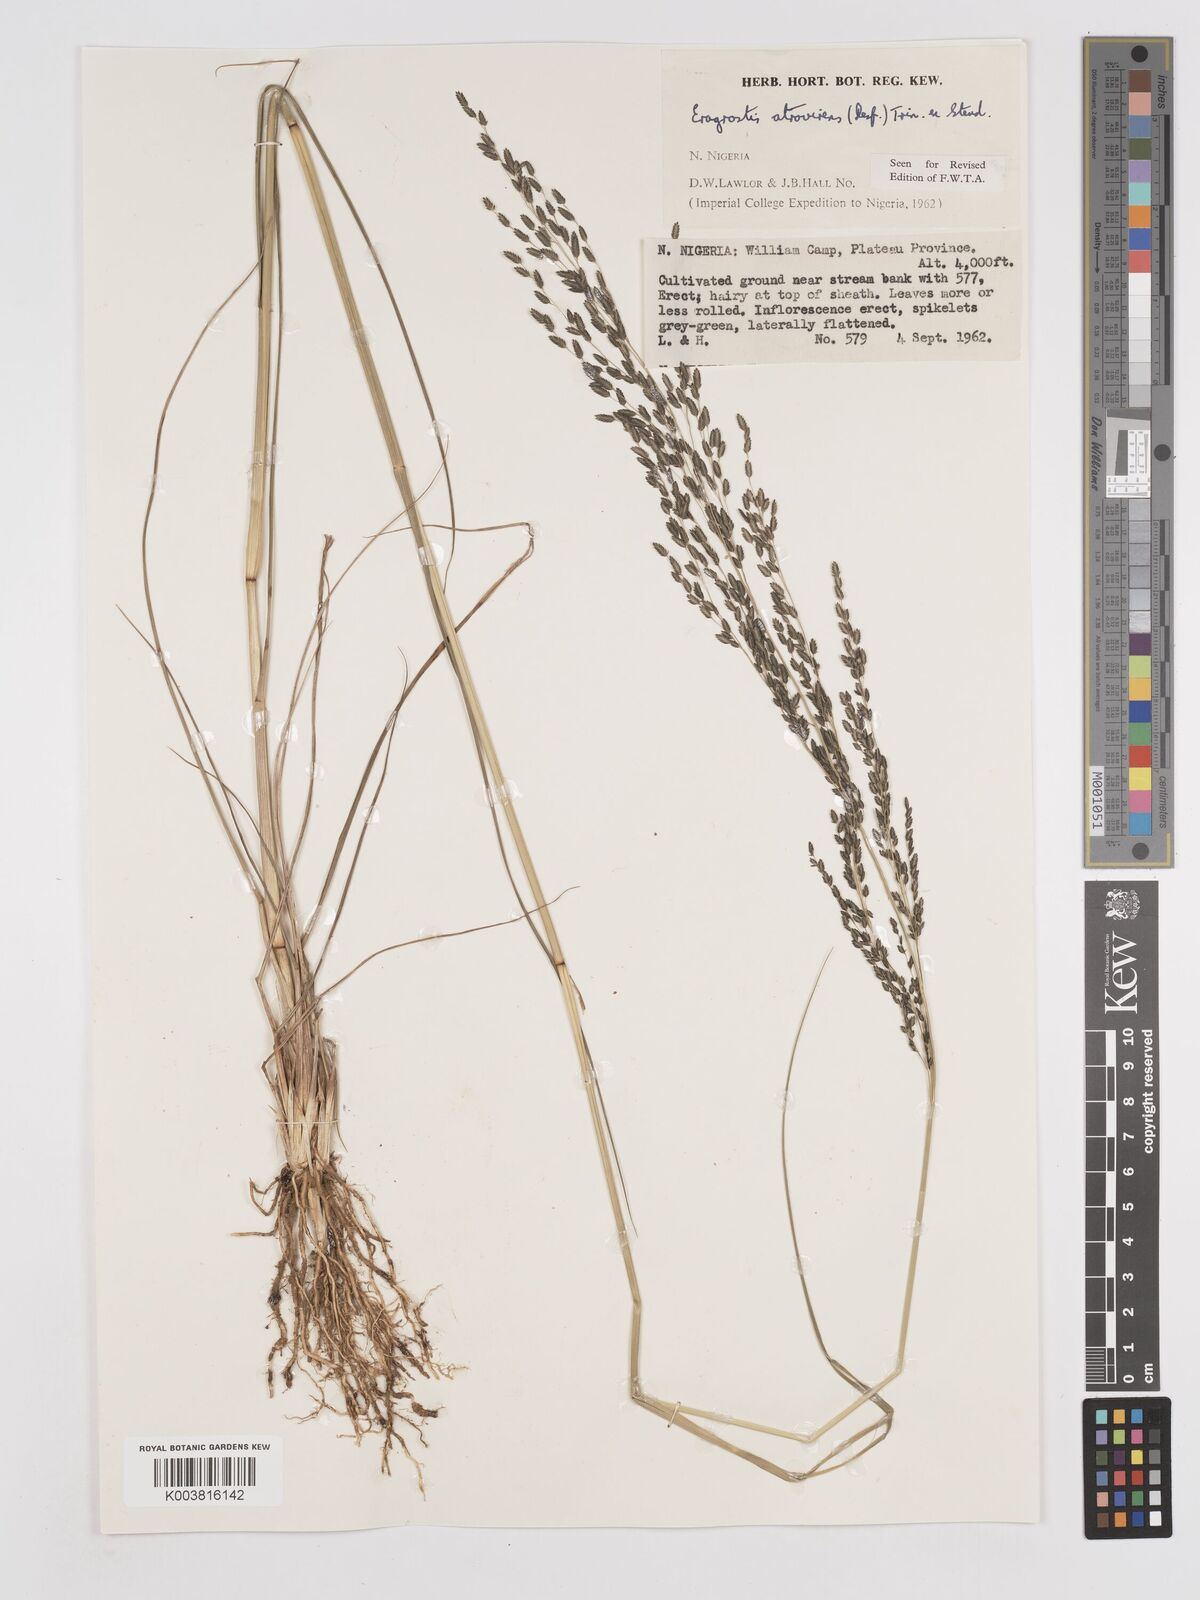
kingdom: Plantae
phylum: Tracheophyta
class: Liliopsida
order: Poales
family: Poaceae
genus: Eragrostis
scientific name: Eragrostis atrovirens
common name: Thalia lovegrass
